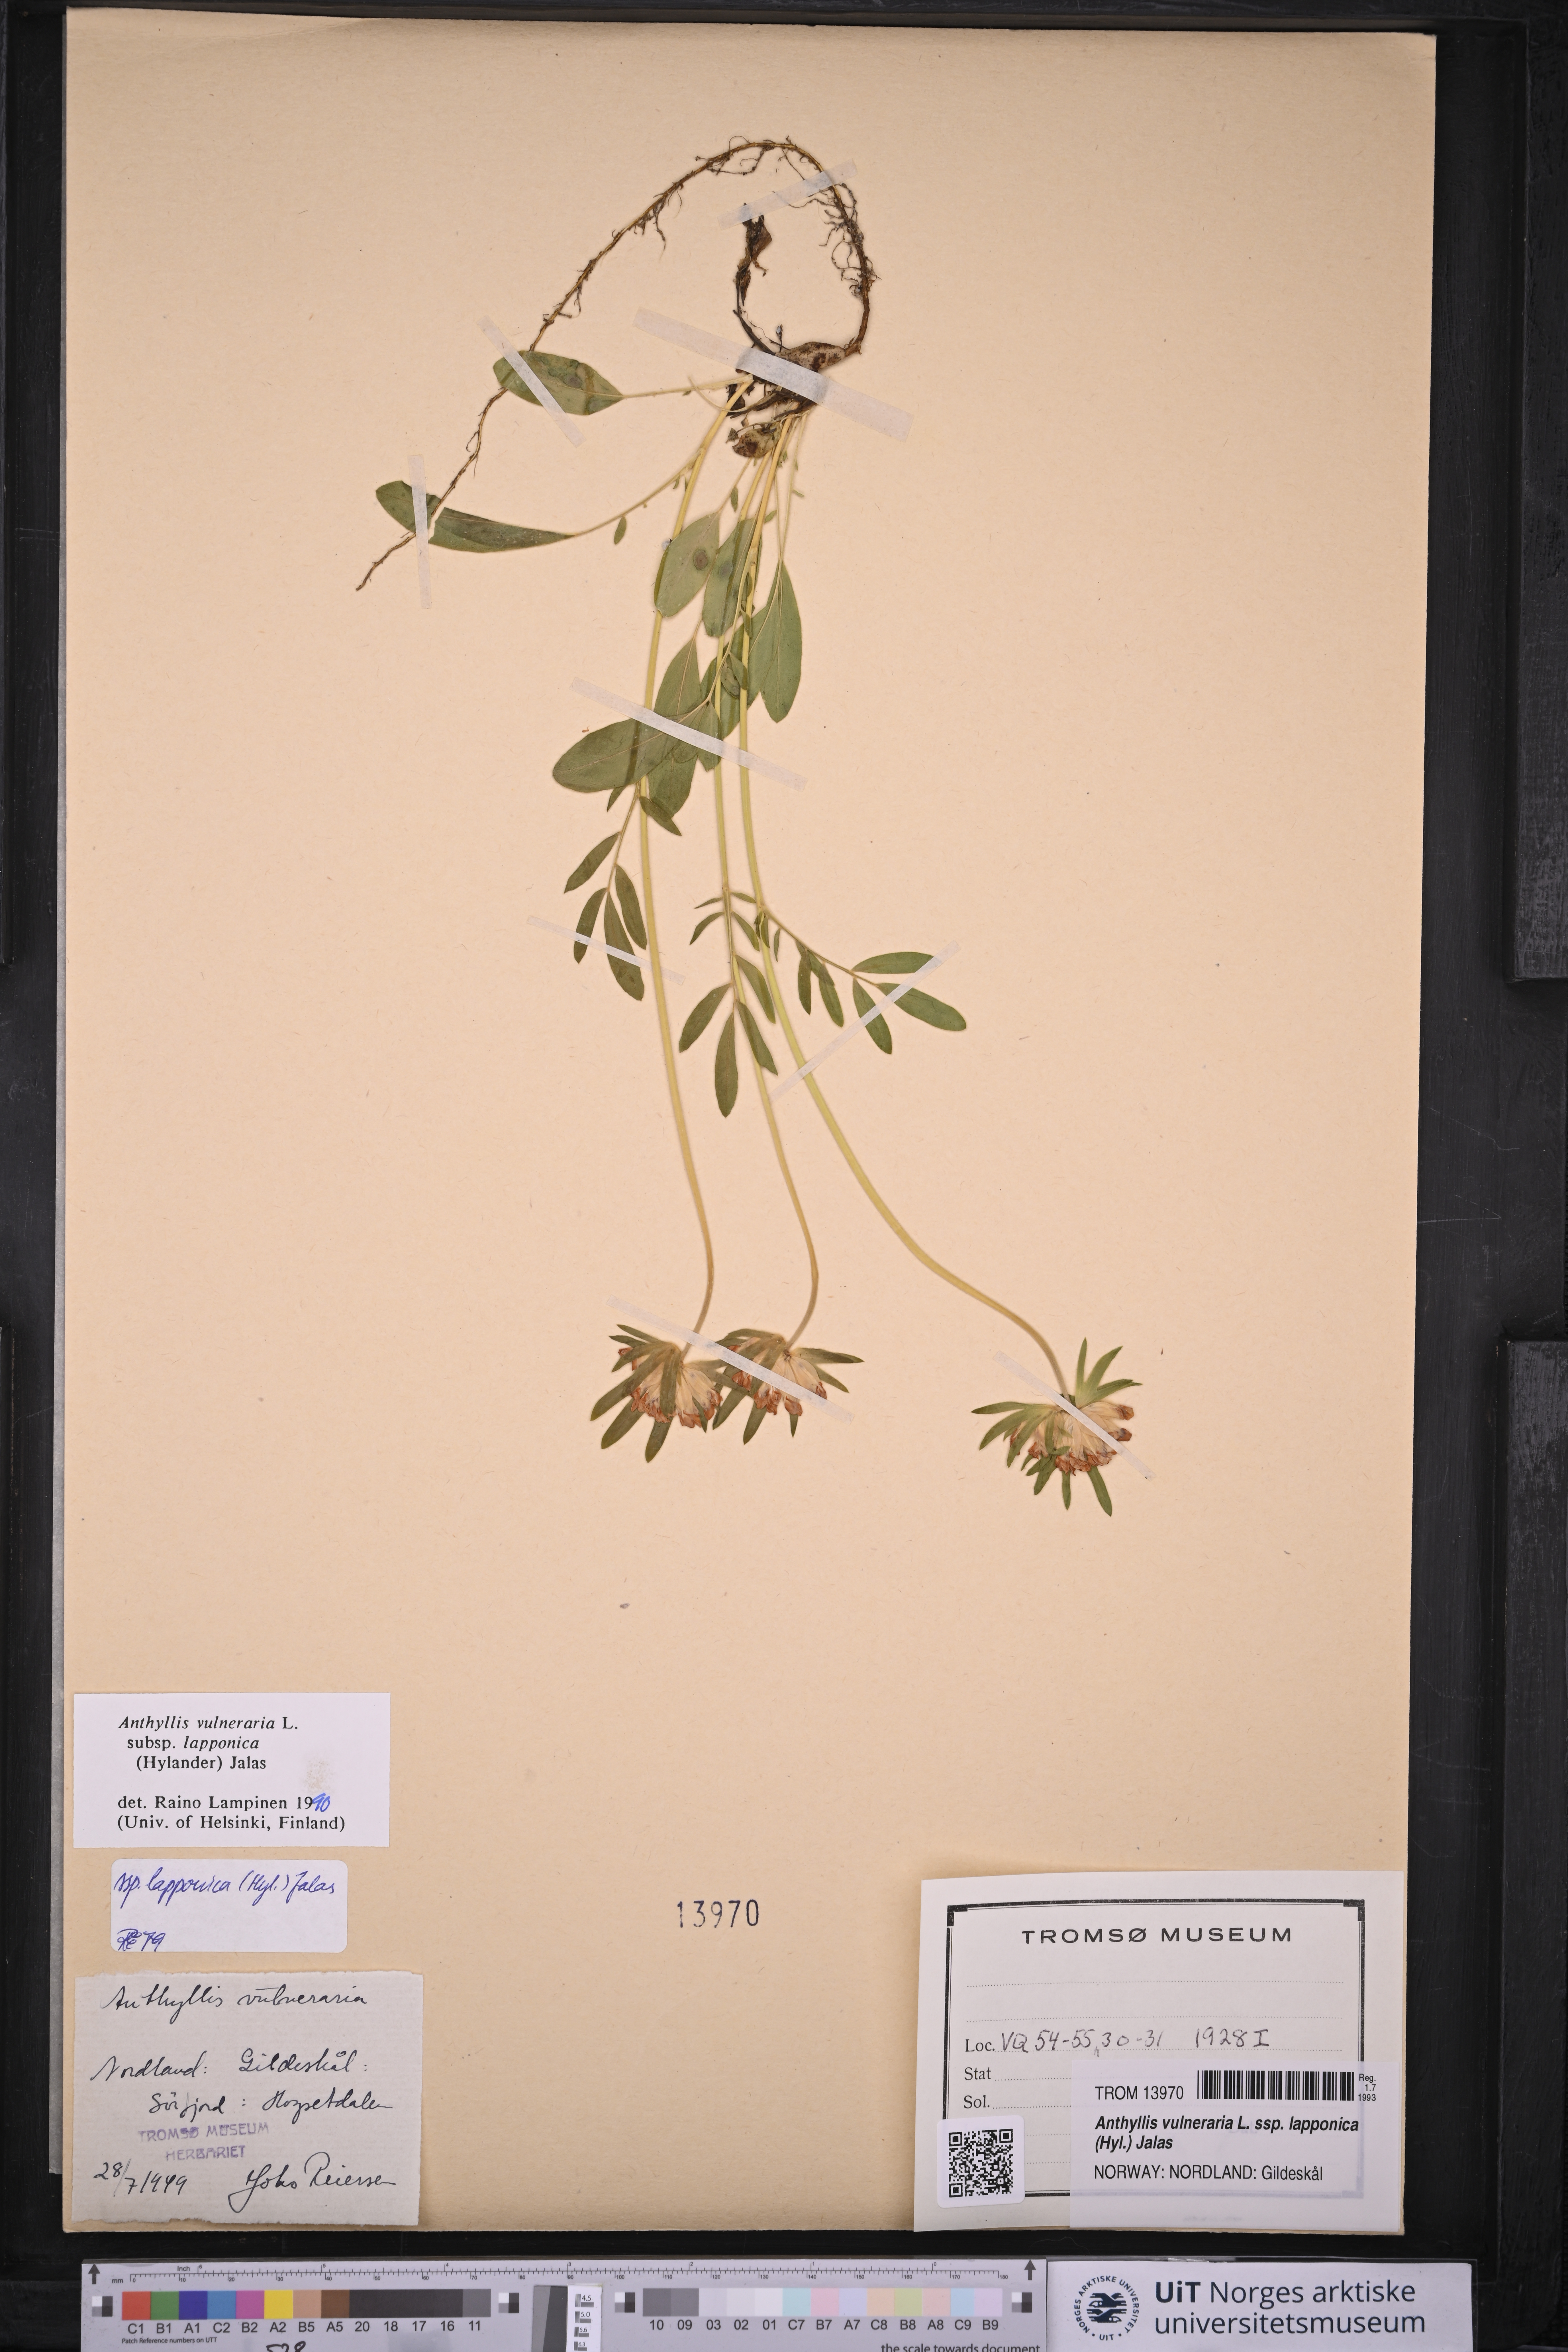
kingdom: Plantae
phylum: Tracheophyta
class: Magnoliopsida
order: Fabales
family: Fabaceae
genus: Anthyllis
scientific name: Anthyllis vulneraria
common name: Kidney vetch
